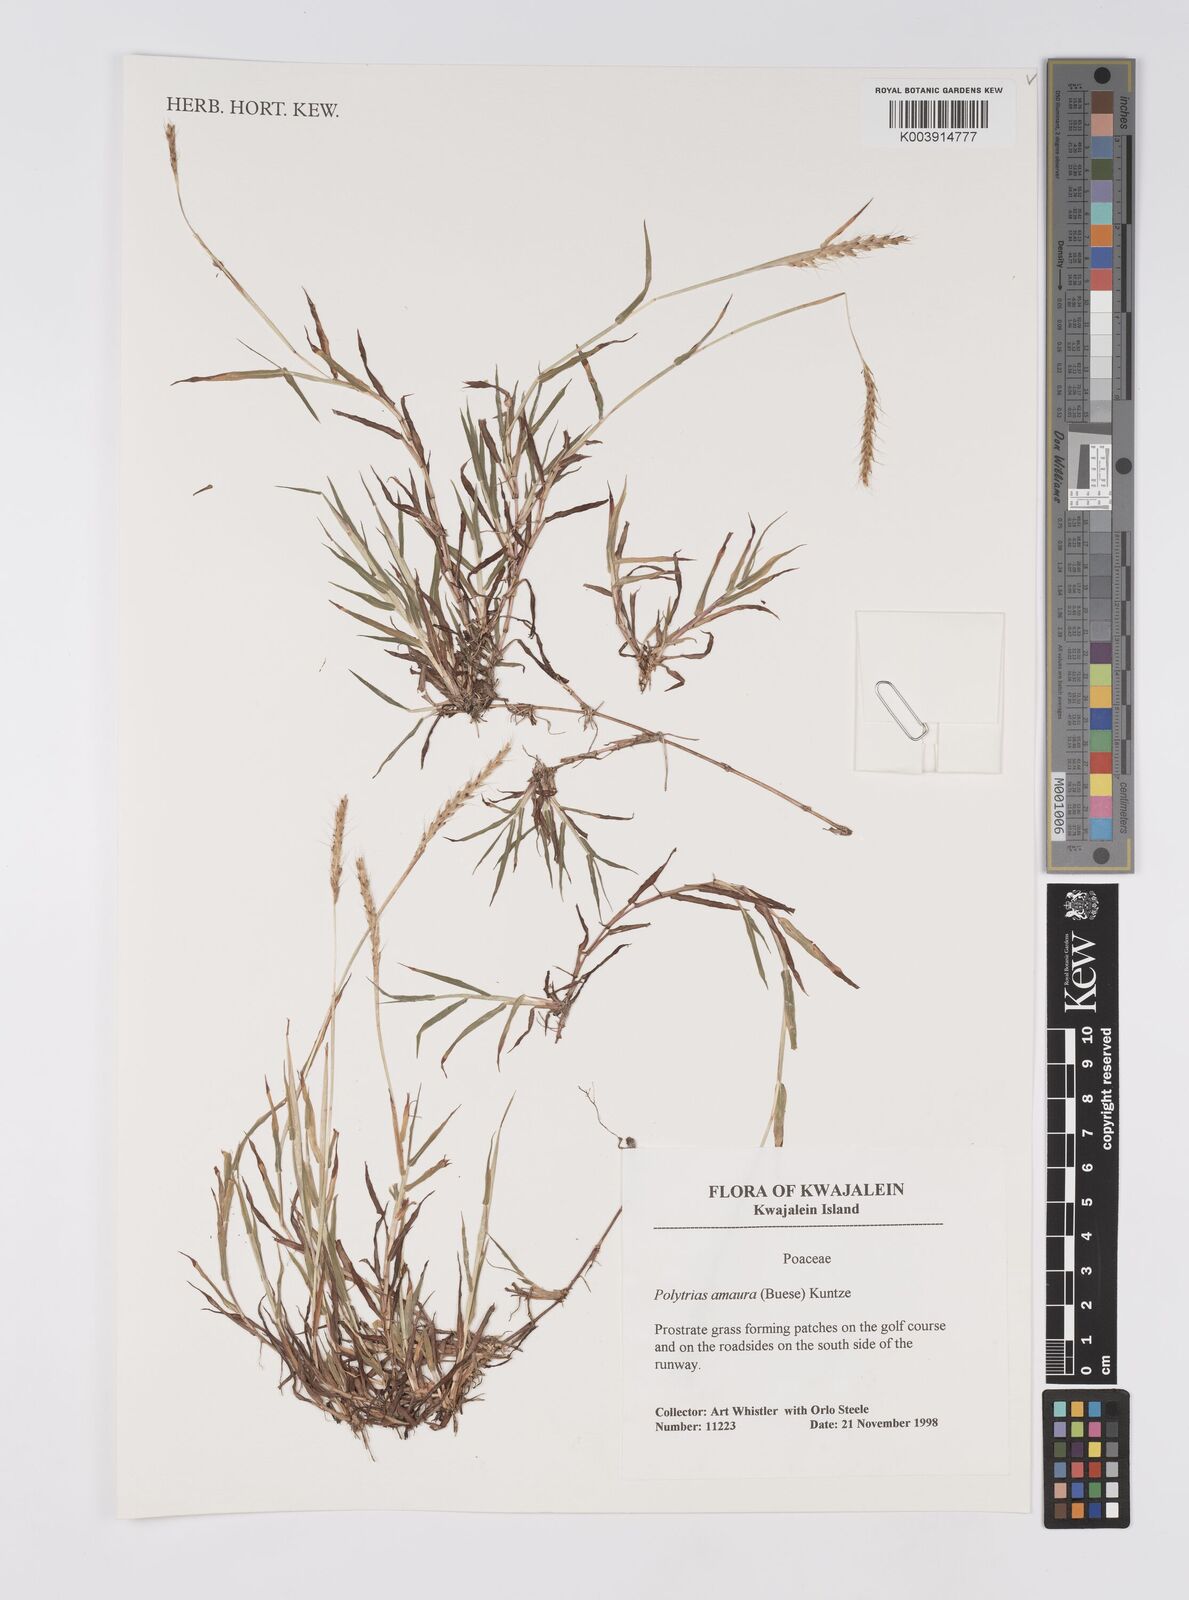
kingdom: Plantae
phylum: Tracheophyta
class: Liliopsida
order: Poales
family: Poaceae
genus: Polytrias
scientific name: Polytrias indica
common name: Indian murainagrass
